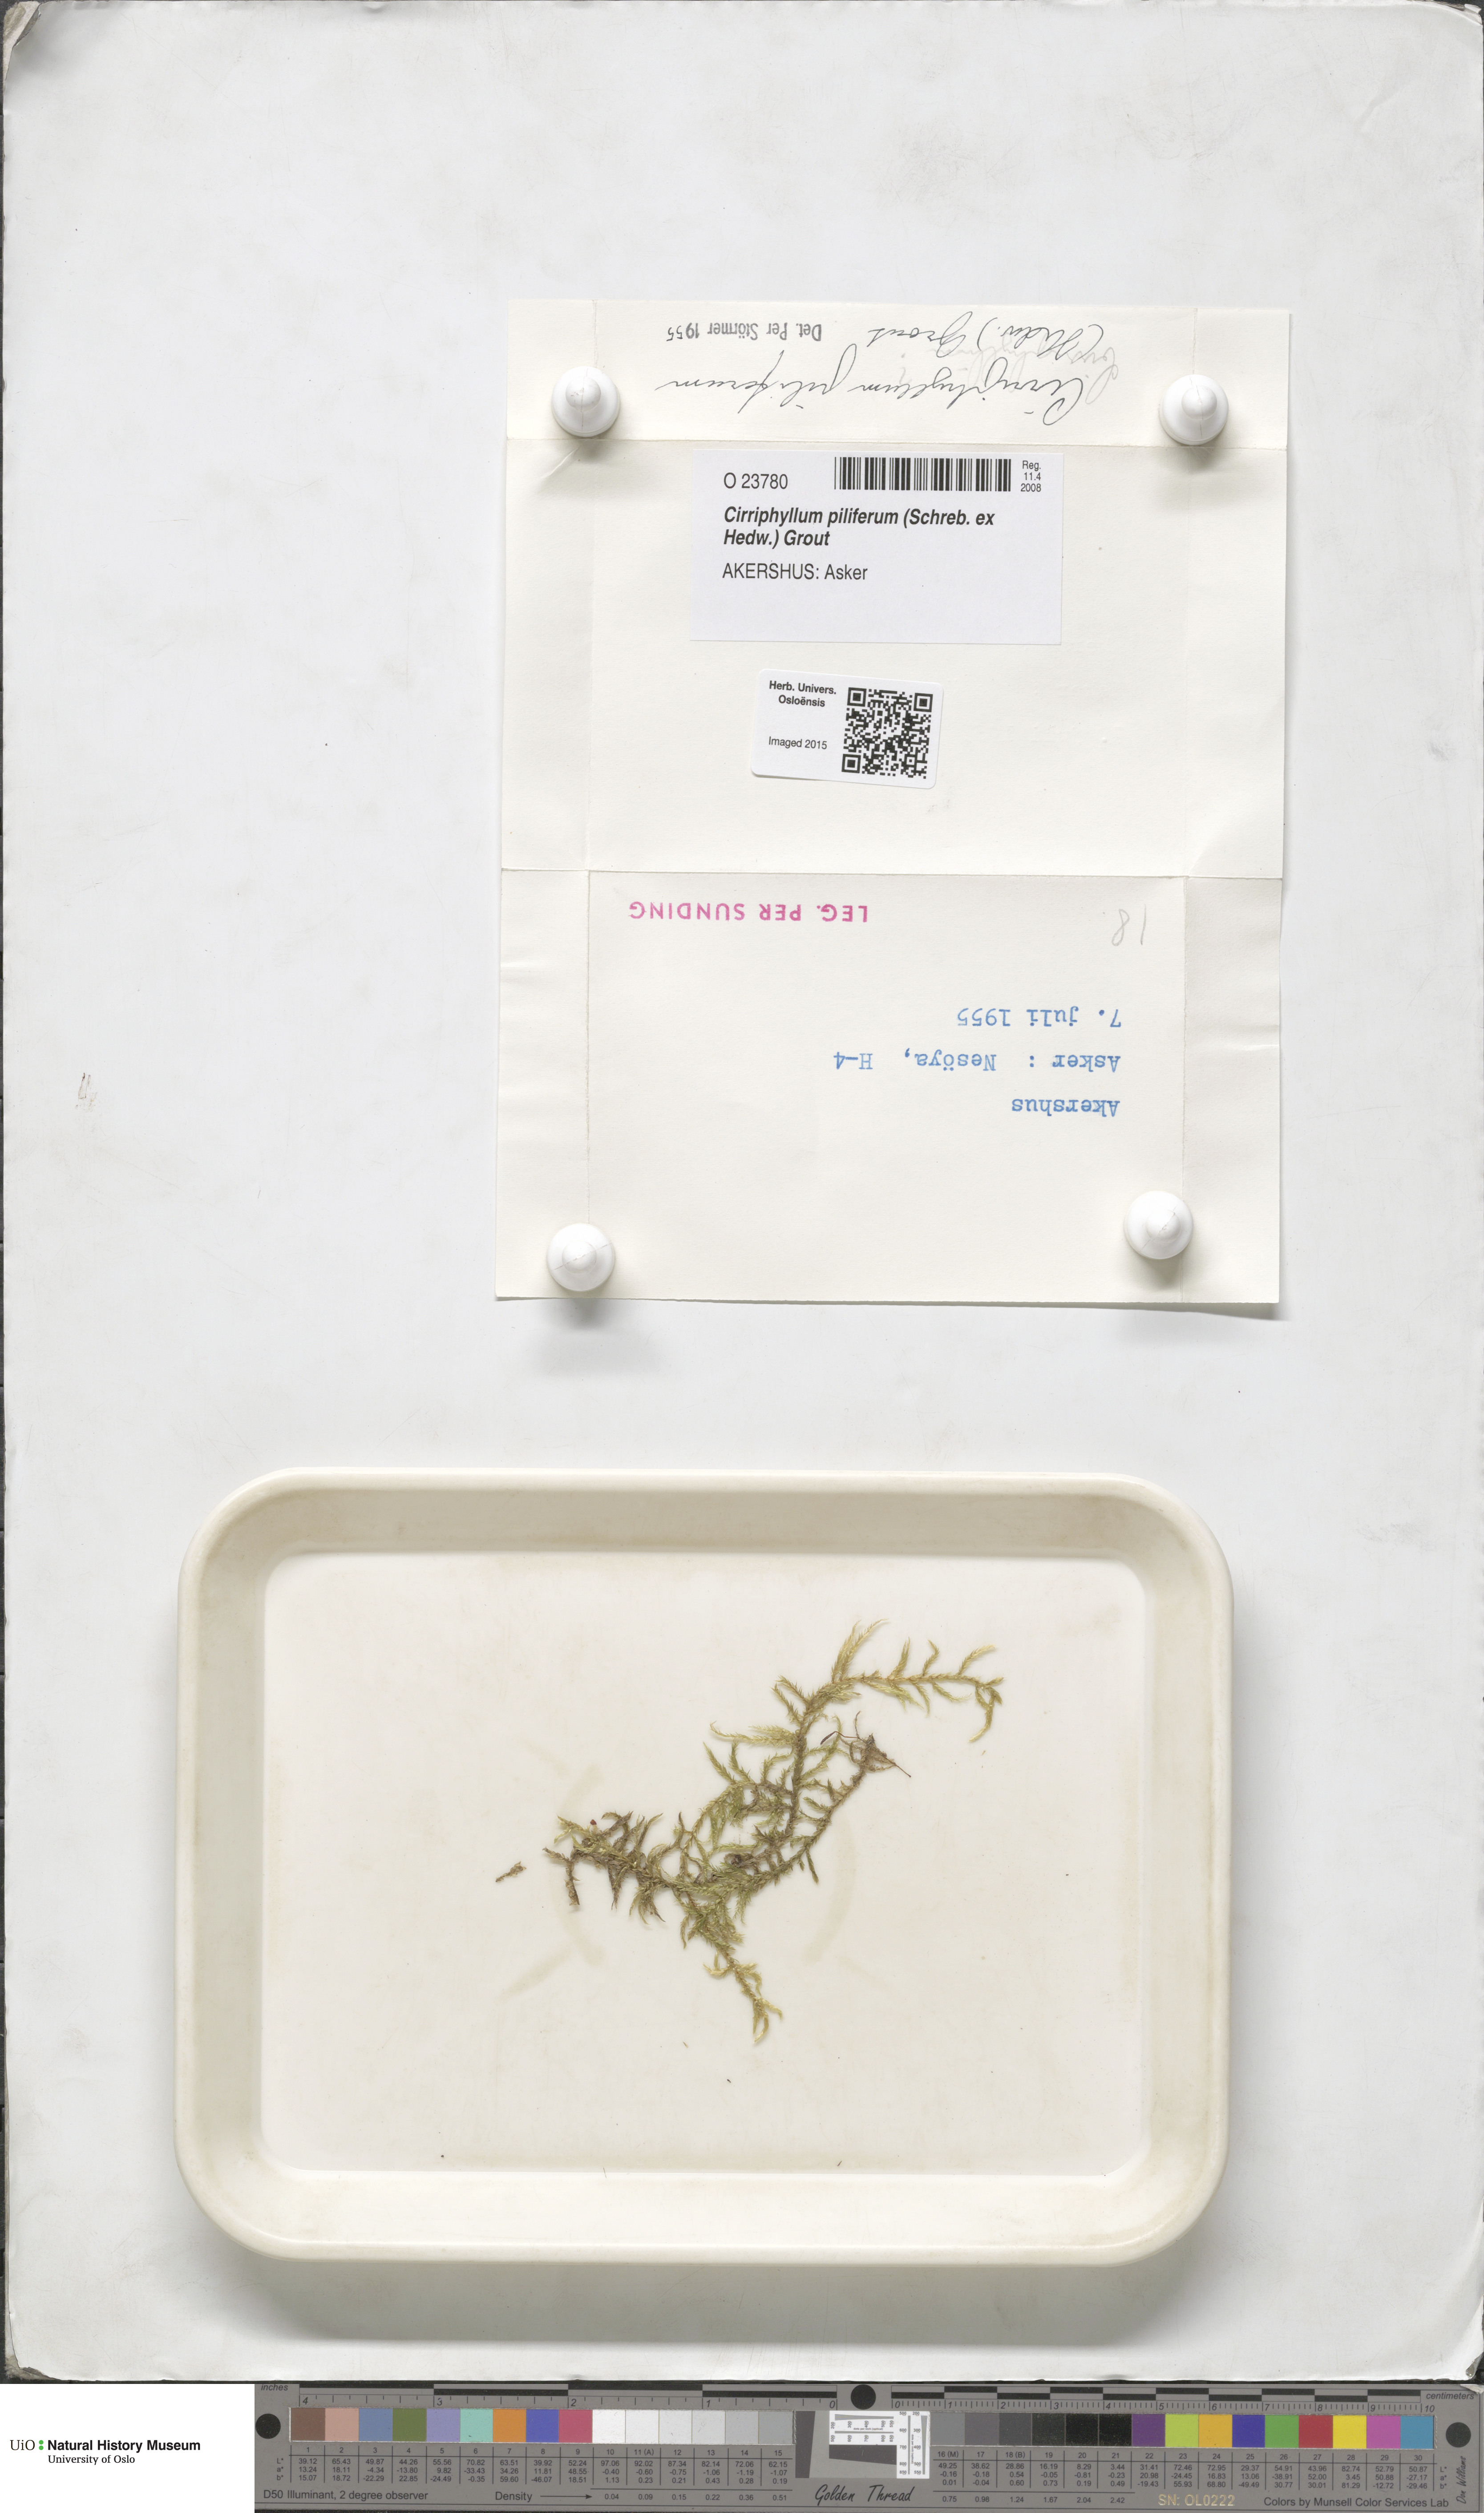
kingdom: Plantae
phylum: Bryophyta
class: Bryopsida
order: Hypnales
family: Brachytheciaceae
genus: Cirriphyllum
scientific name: Cirriphyllum piliferum
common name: Hair-pointed moss
